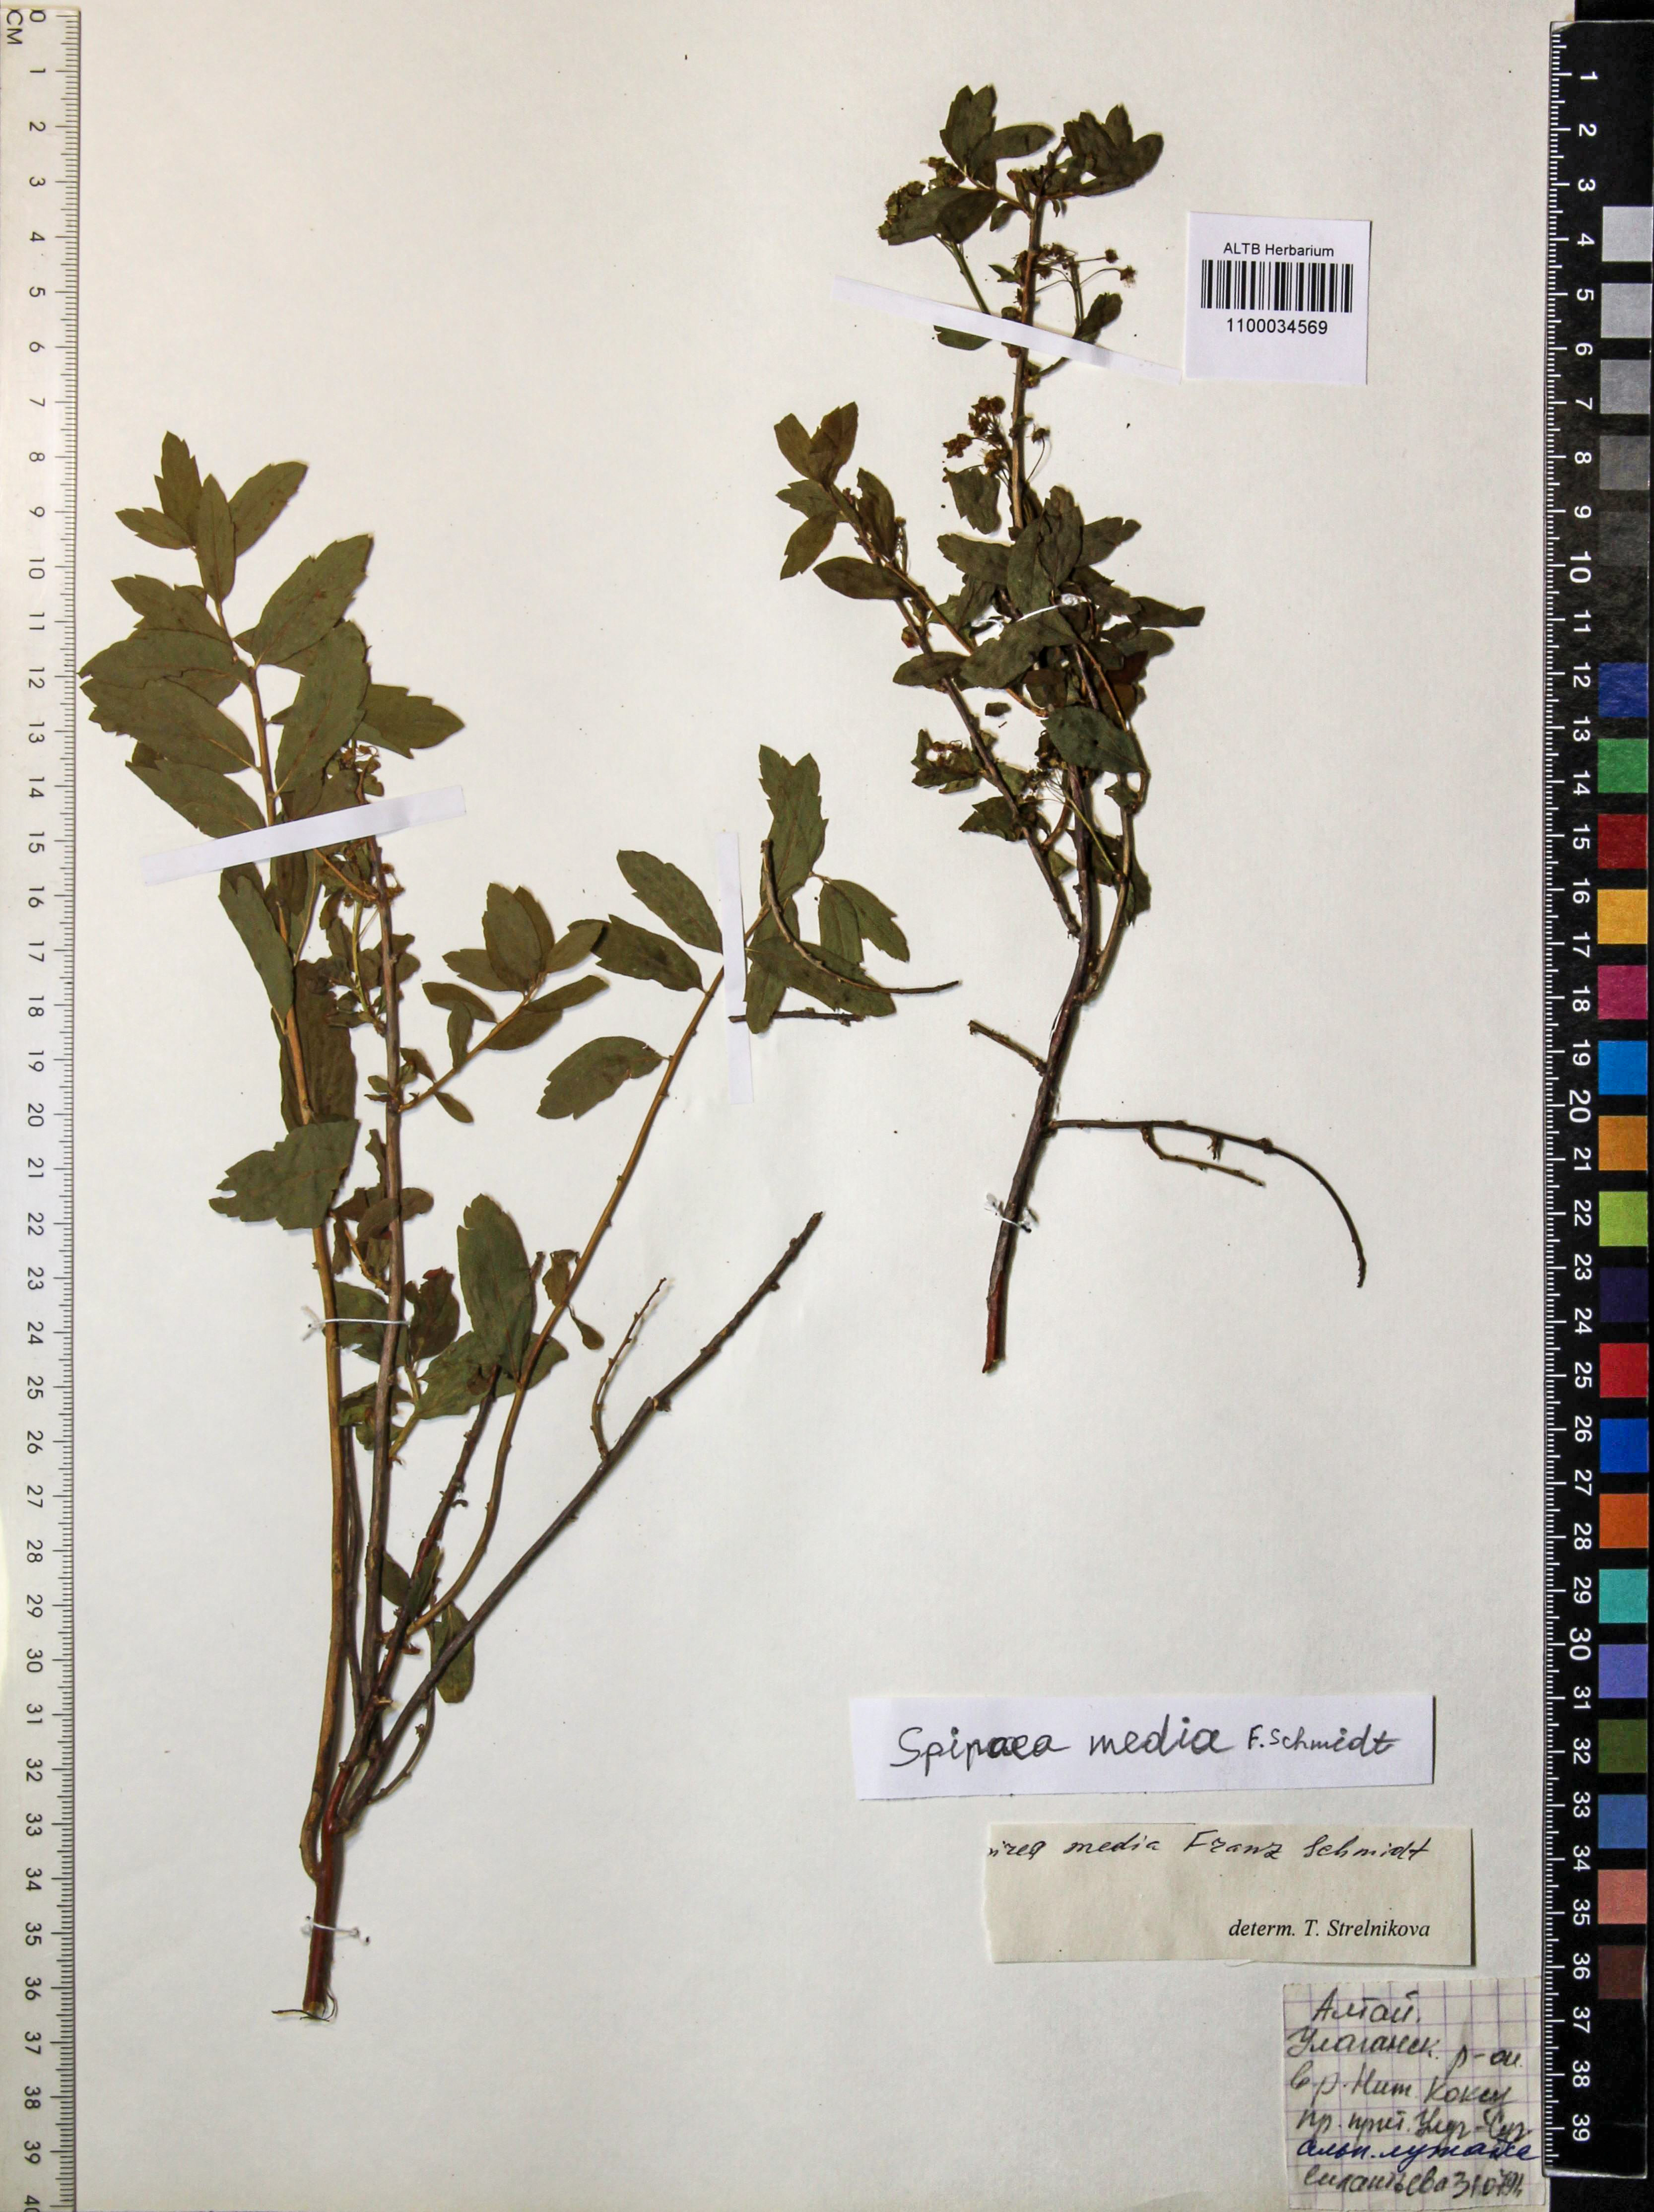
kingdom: Plantae
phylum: Tracheophyta
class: Magnoliopsida
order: Rosales
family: Rosaceae
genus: Spiraea
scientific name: Spiraea media
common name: Russian spiraea
